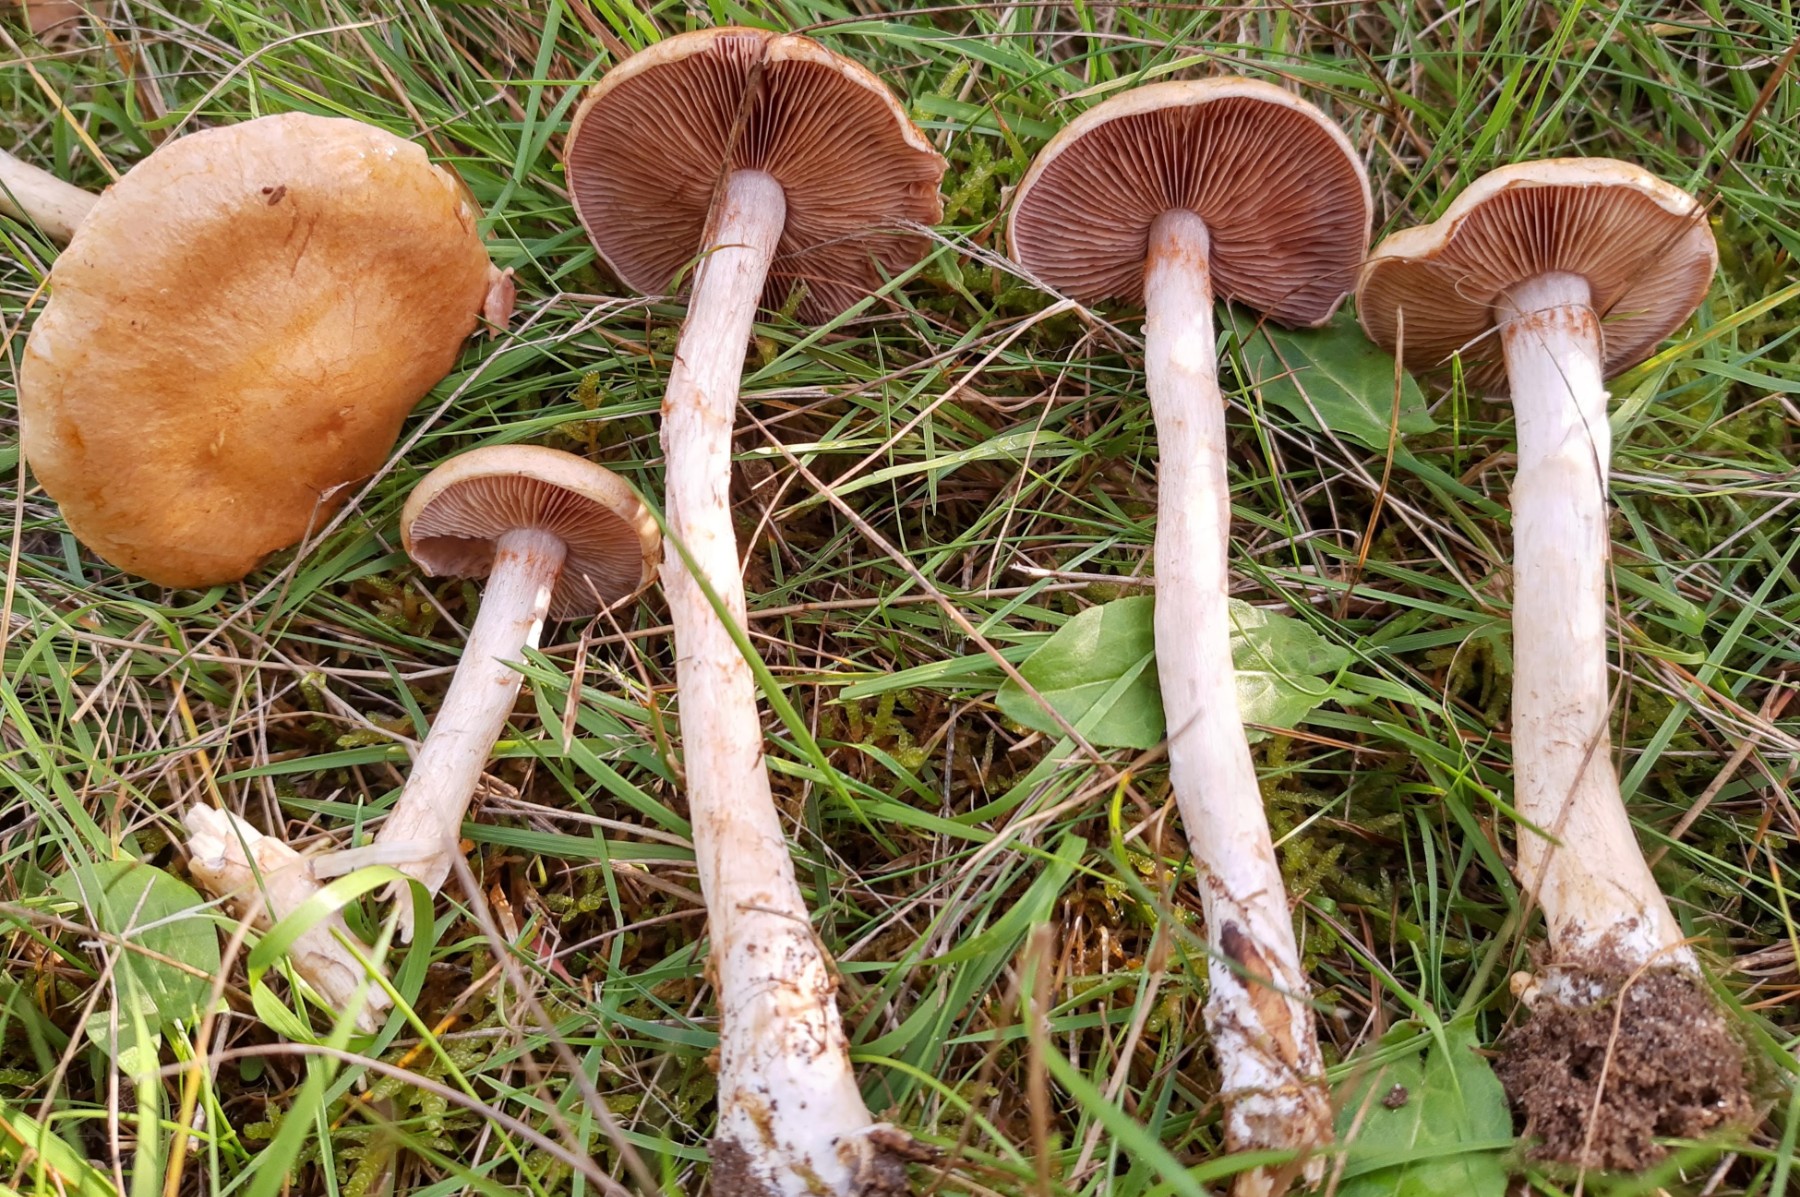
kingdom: Fungi
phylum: Basidiomycota
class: Agaricomycetes
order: Agaricales
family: Cortinariaceae
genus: Cortinarius
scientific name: Cortinarius
